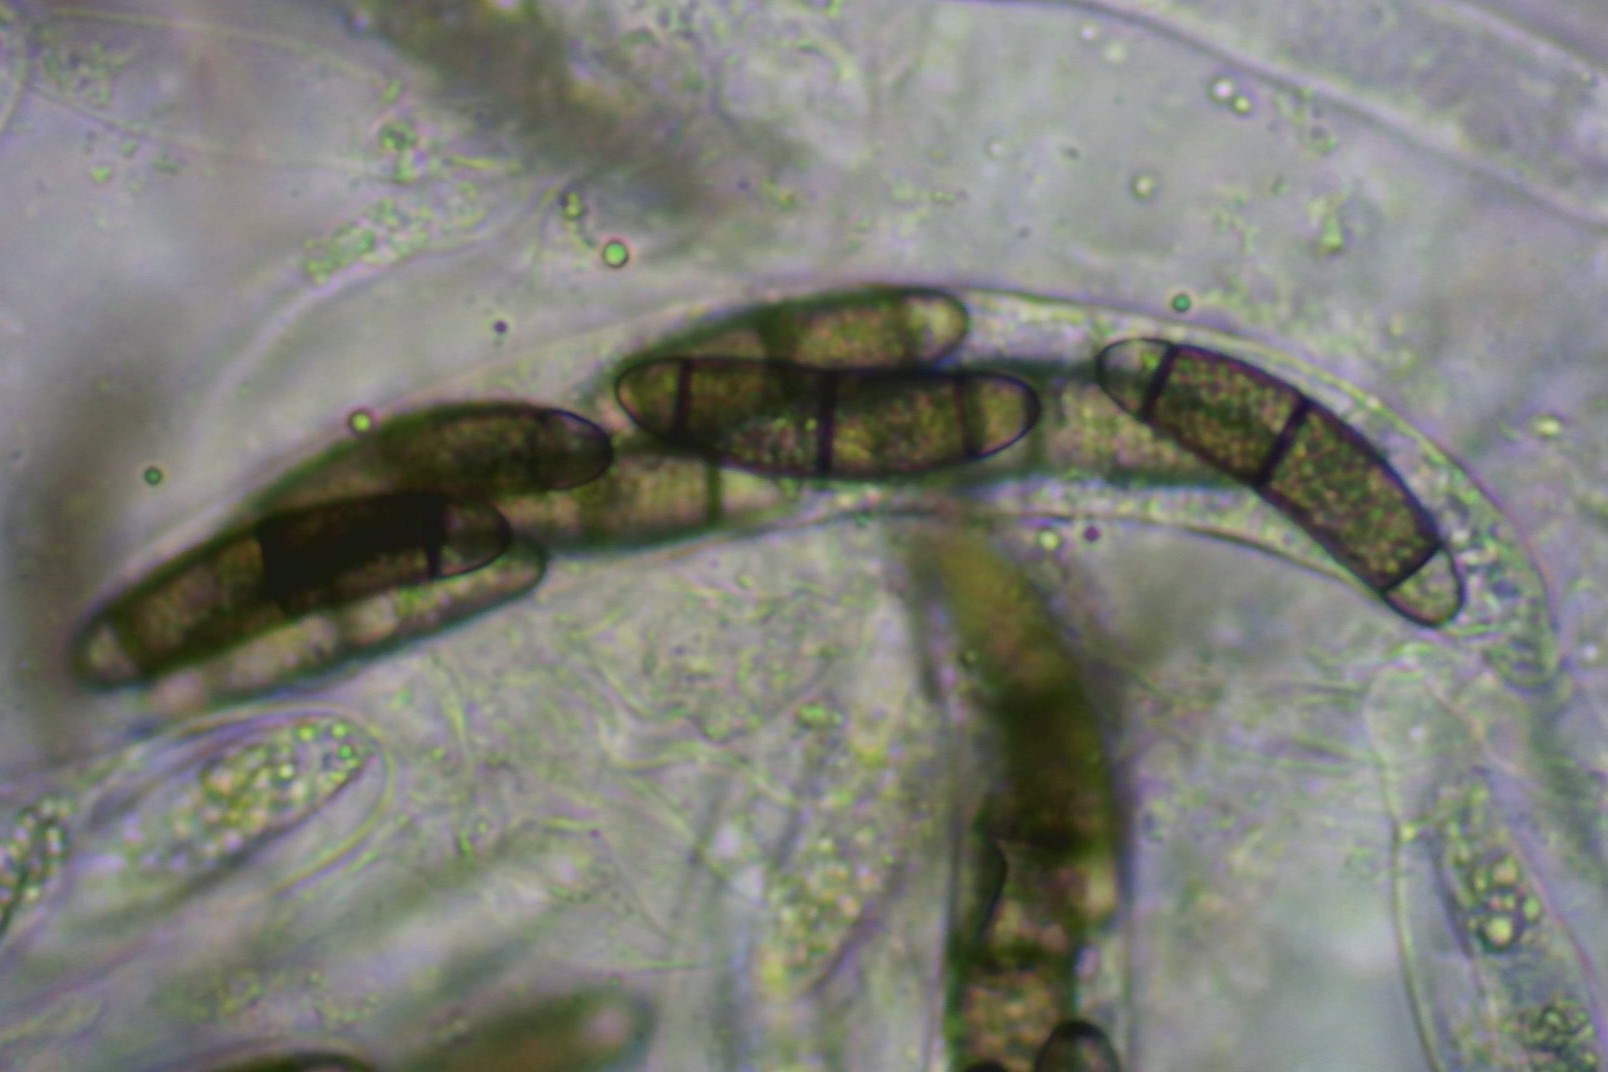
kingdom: Fungi
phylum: Ascomycota
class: Sordariomycetes
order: Coronophorales
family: Chaetosphaerellaceae
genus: Chaetosphaerella
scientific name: Chaetosphaerella phaeostroma
